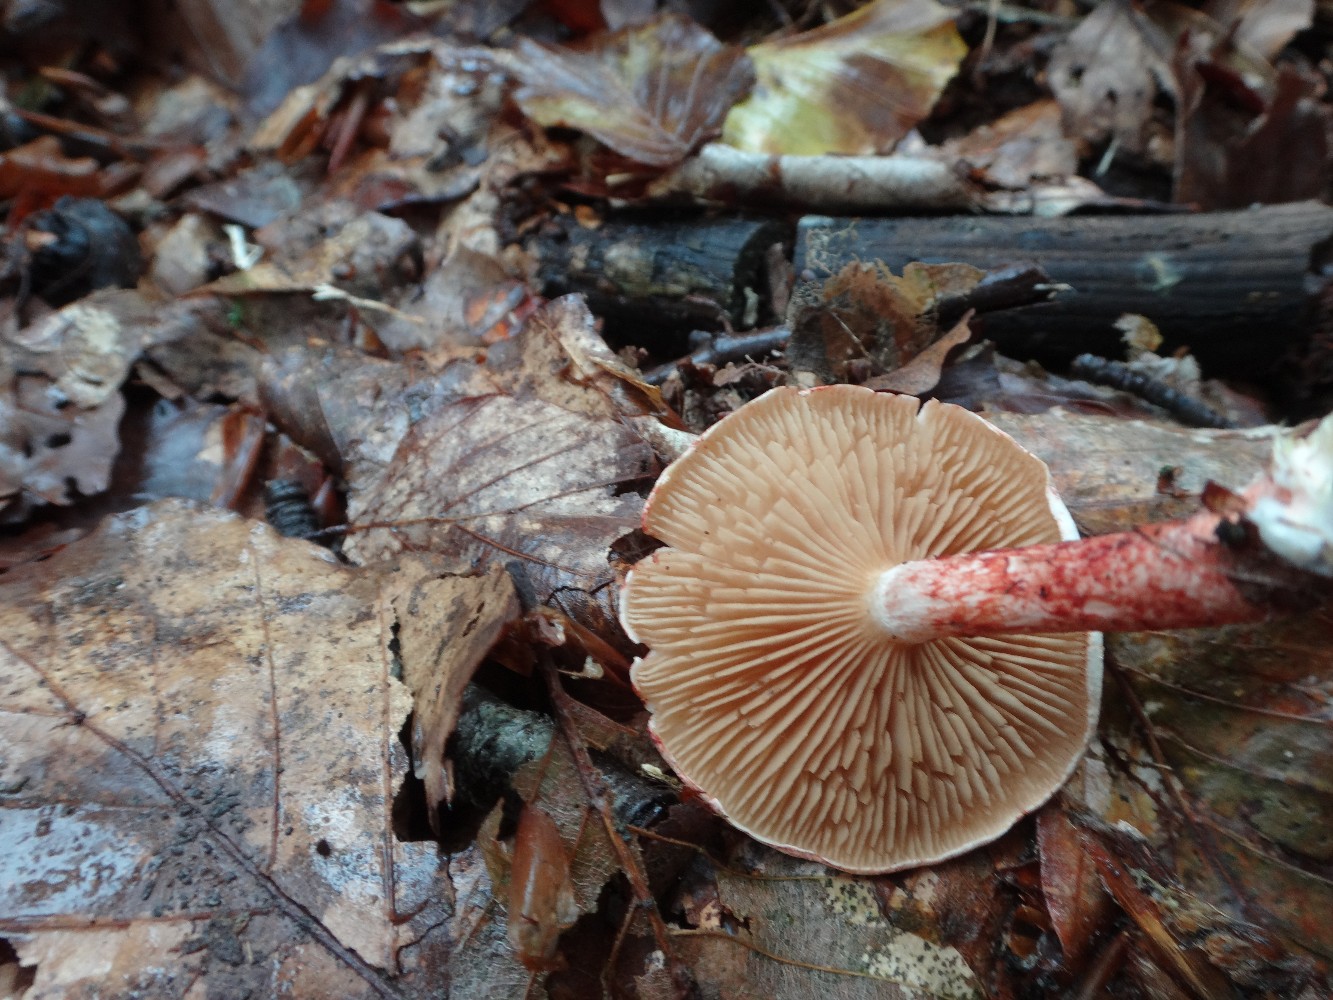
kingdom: Fungi
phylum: Basidiomycota
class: Agaricomycetes
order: Agaricales
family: Cortinariaceae
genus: Cortinarius
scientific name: Cortinarius bolaris
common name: cinnoberskællet slørhat
